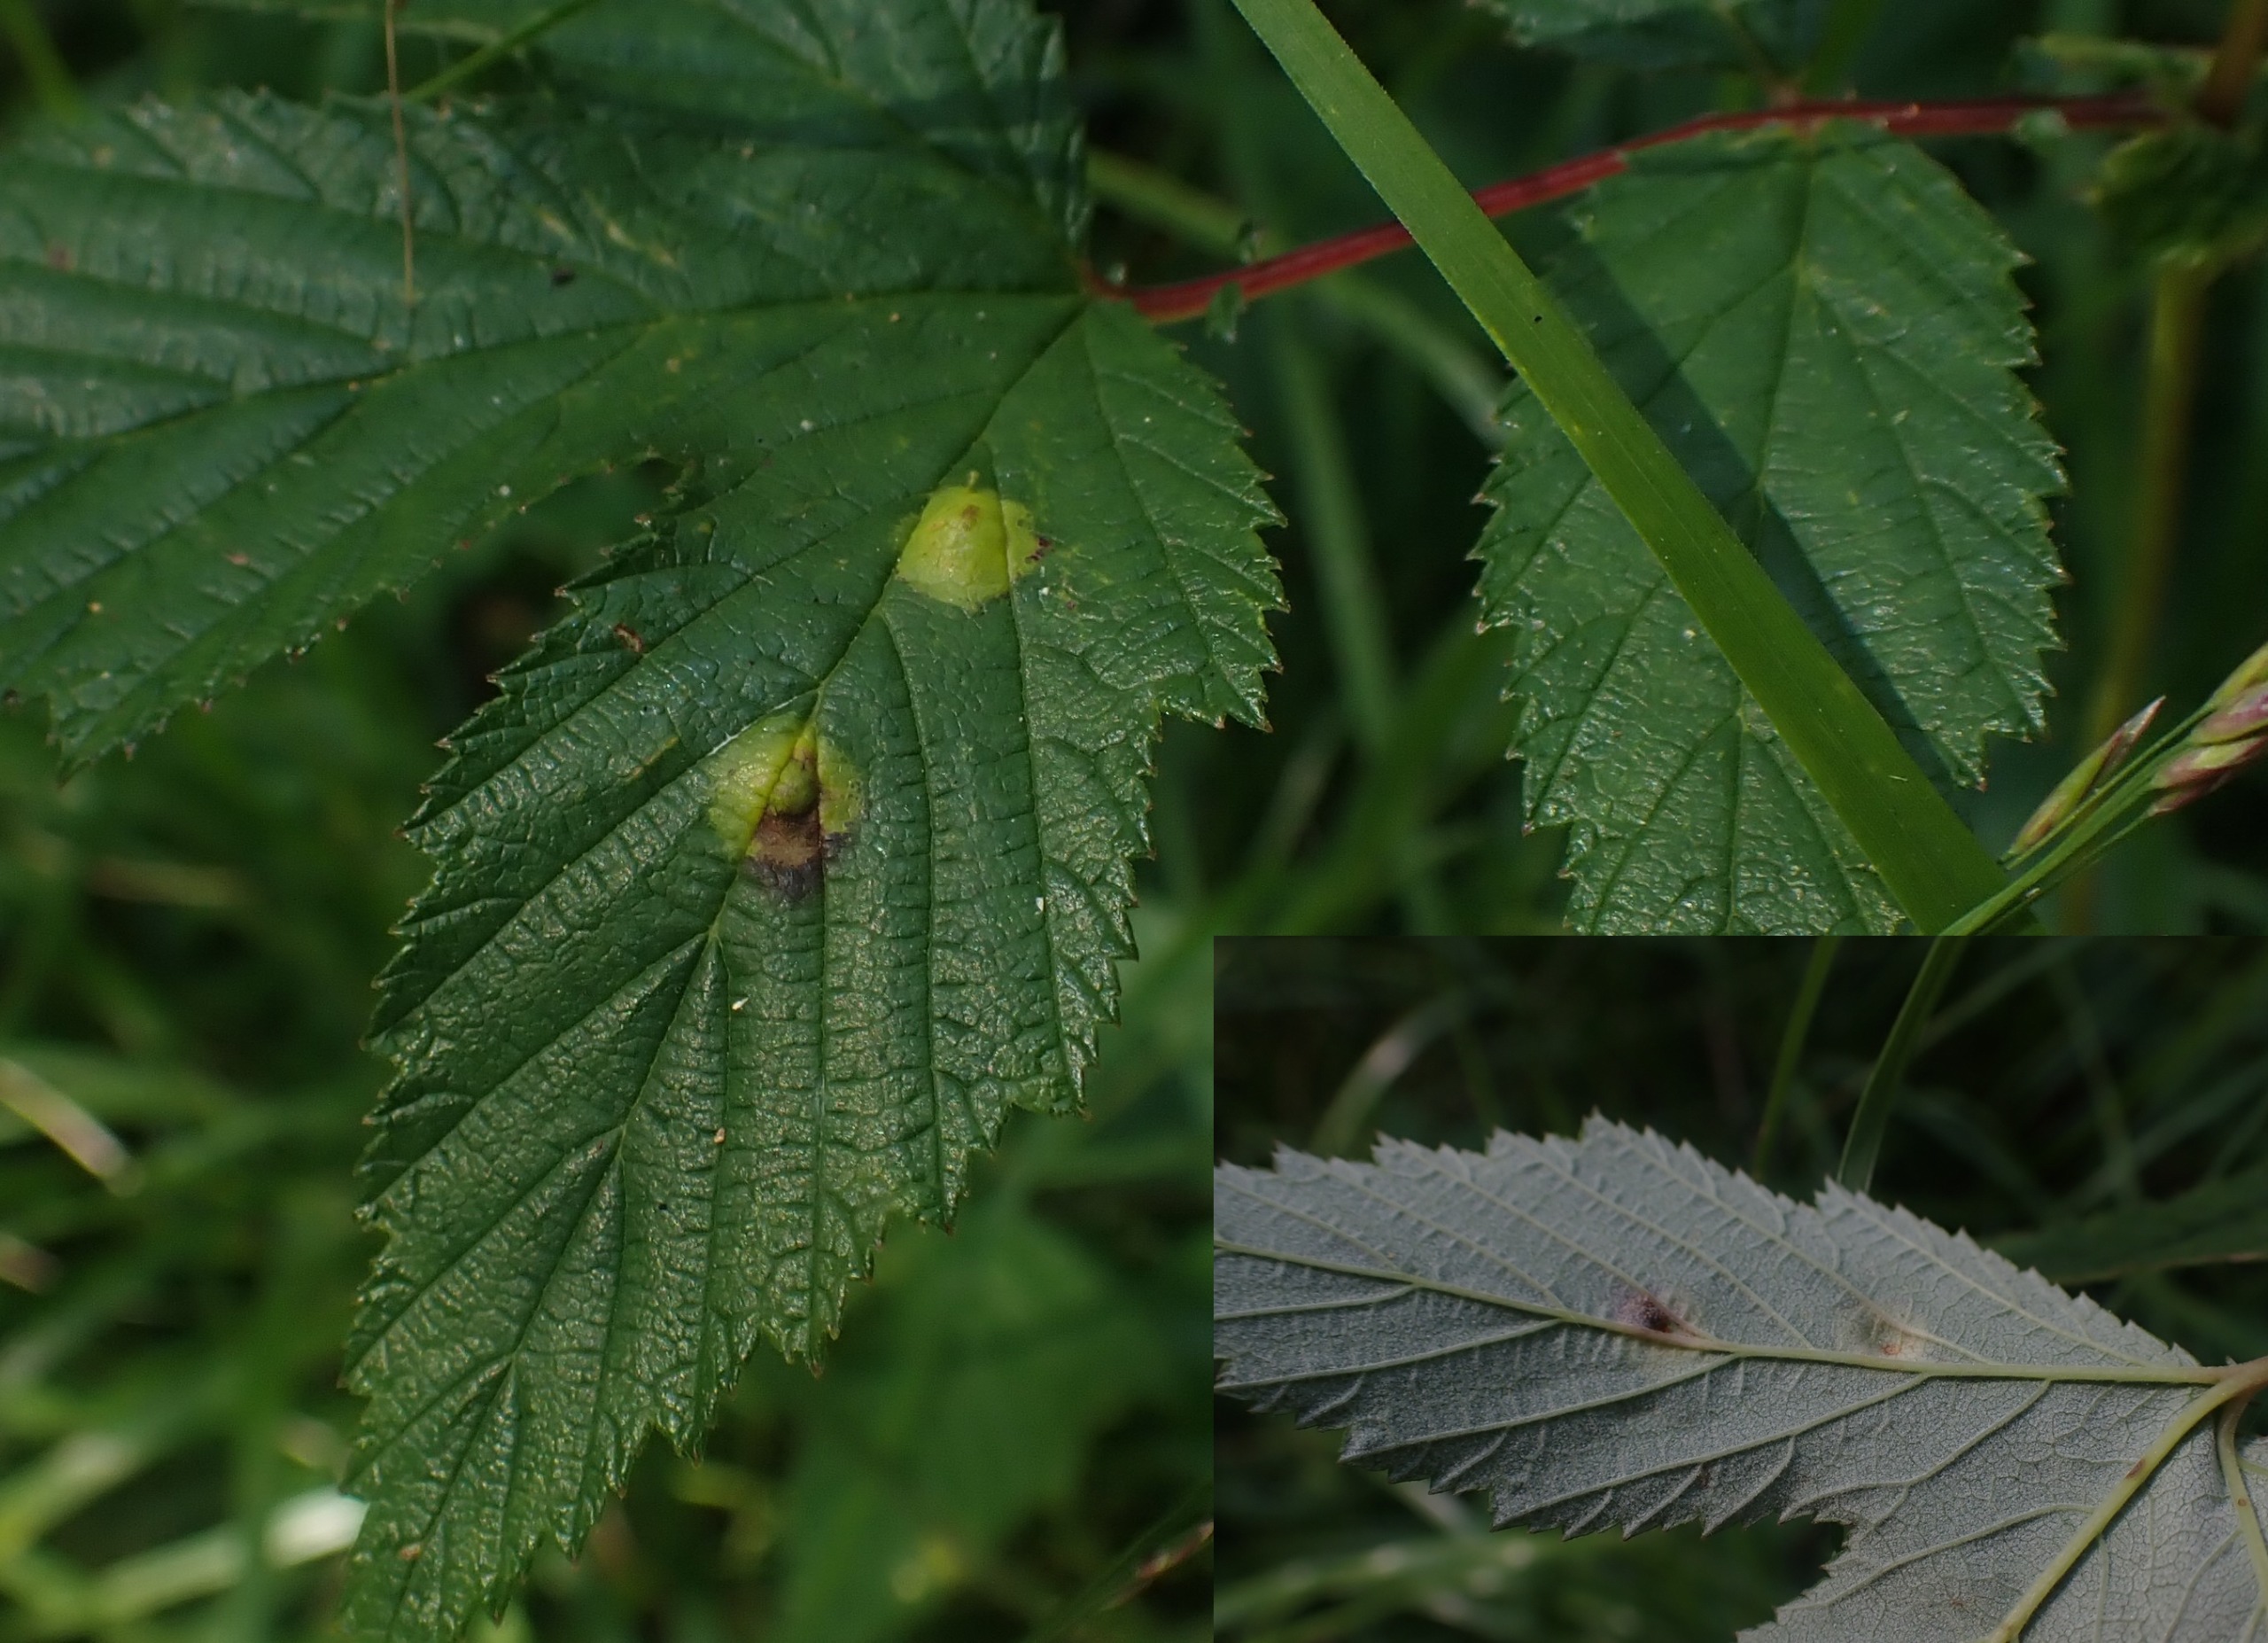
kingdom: Animalia
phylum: Arthropoda
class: Insecta
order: Diptera
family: Cecidomyiidae
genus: Dasineura
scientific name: Dasineura pustulans
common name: Mjødurtblistgalmyg
